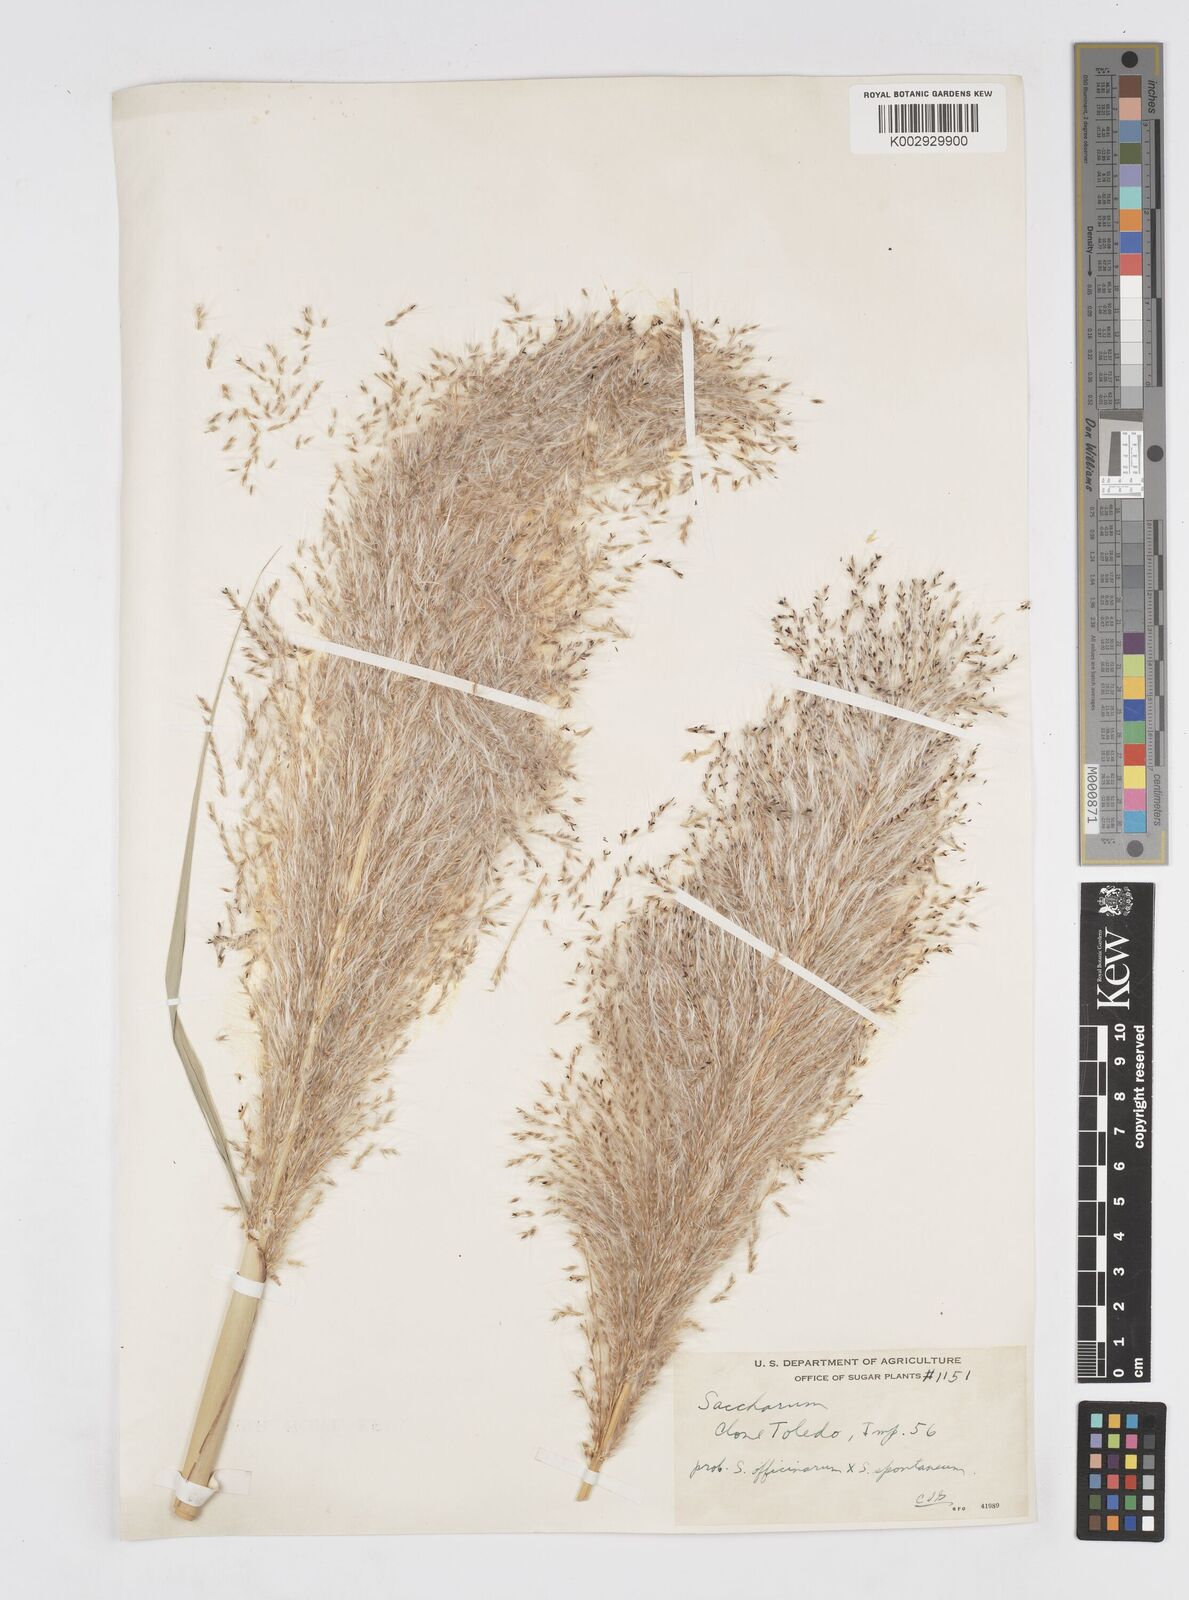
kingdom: Plantae
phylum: Tracheophyta
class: Liliopsida
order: Poales
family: Poaceae
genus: Saccharum
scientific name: Saccharum officinarum
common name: Sugarcane
